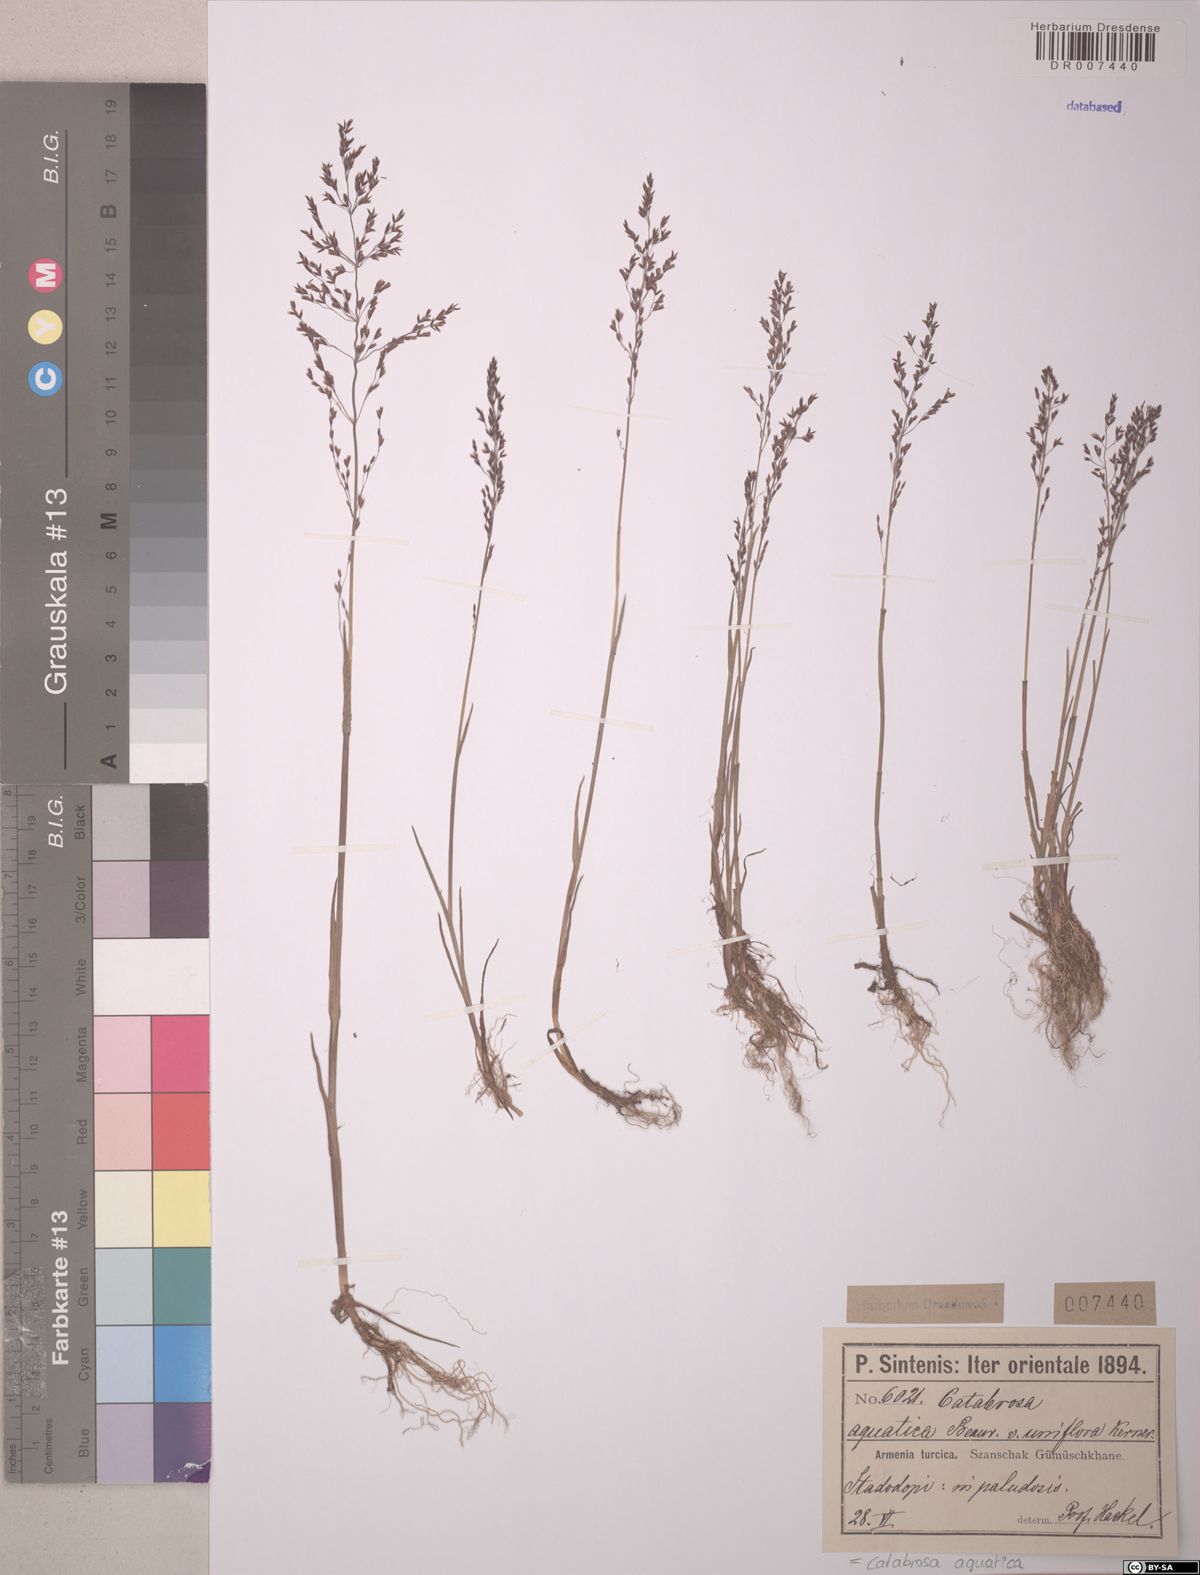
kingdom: Plantae
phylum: Tracheophyta
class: Liliopsida
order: Poales
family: Poaceae
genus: Catabrosa
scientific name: Catabrosa aquatica
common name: Whorl-grass
